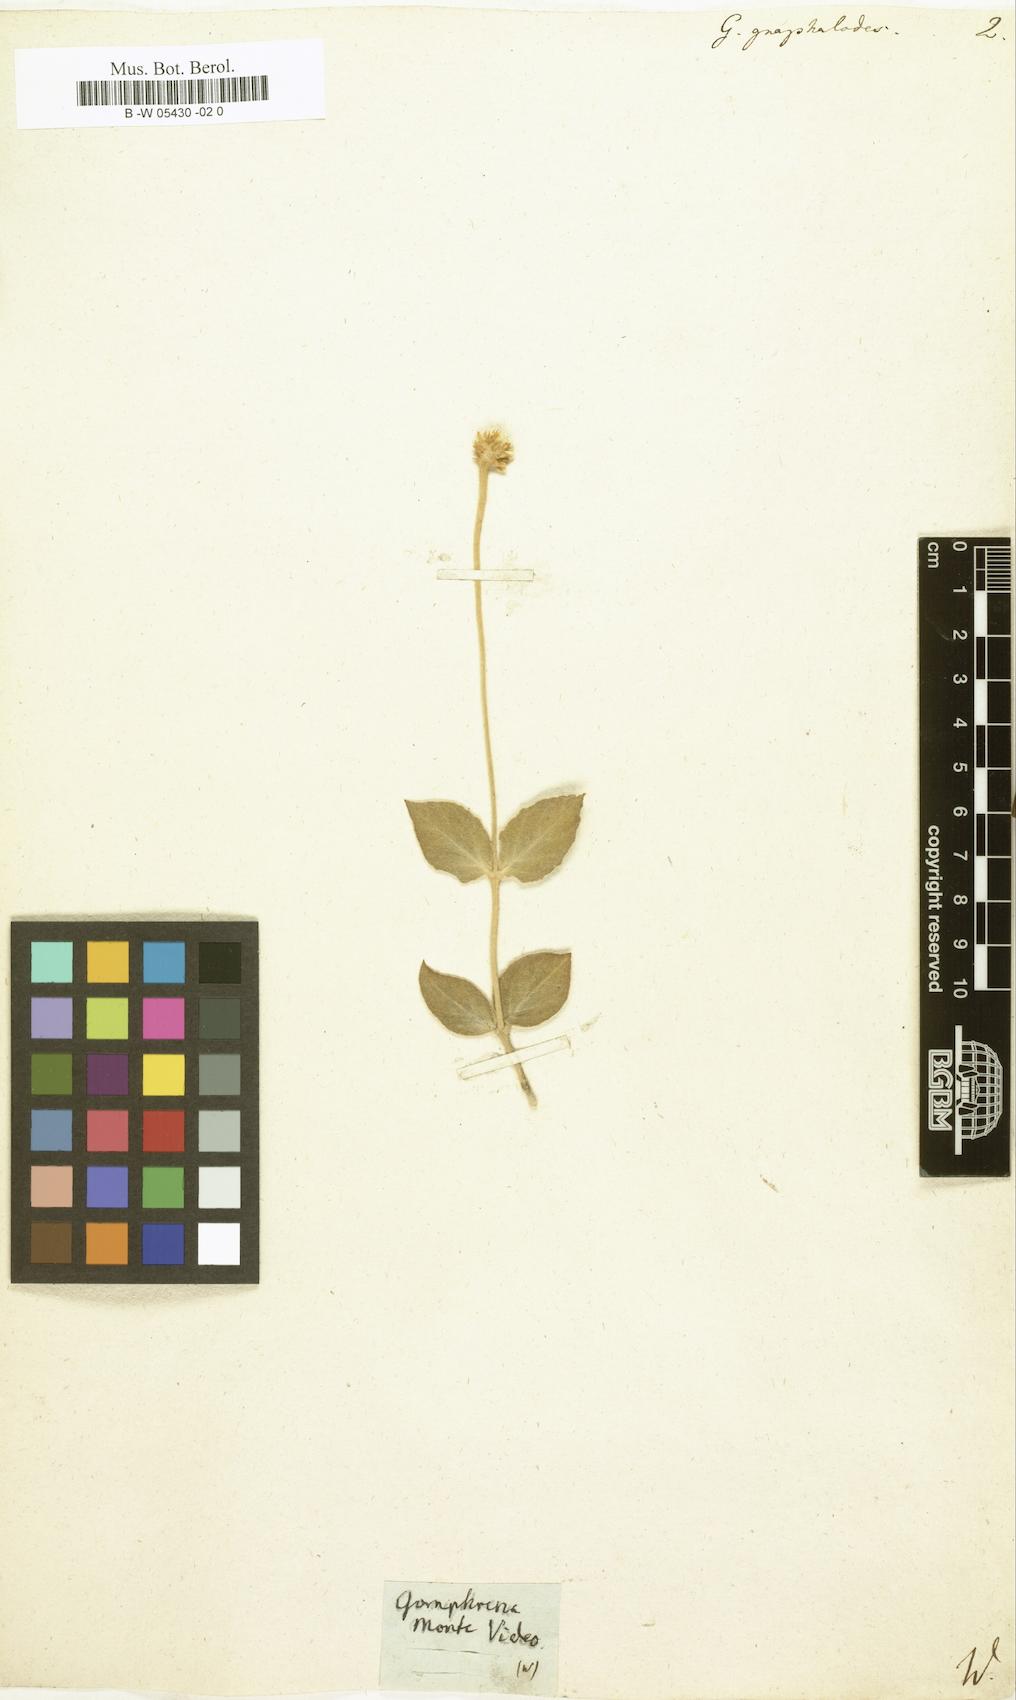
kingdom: Plantae
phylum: Tracheophyta
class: Magnoliopsida
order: Caryophyllales
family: Amaranthaceae
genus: Pfaffia
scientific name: Pfaffia gnaphaloides
